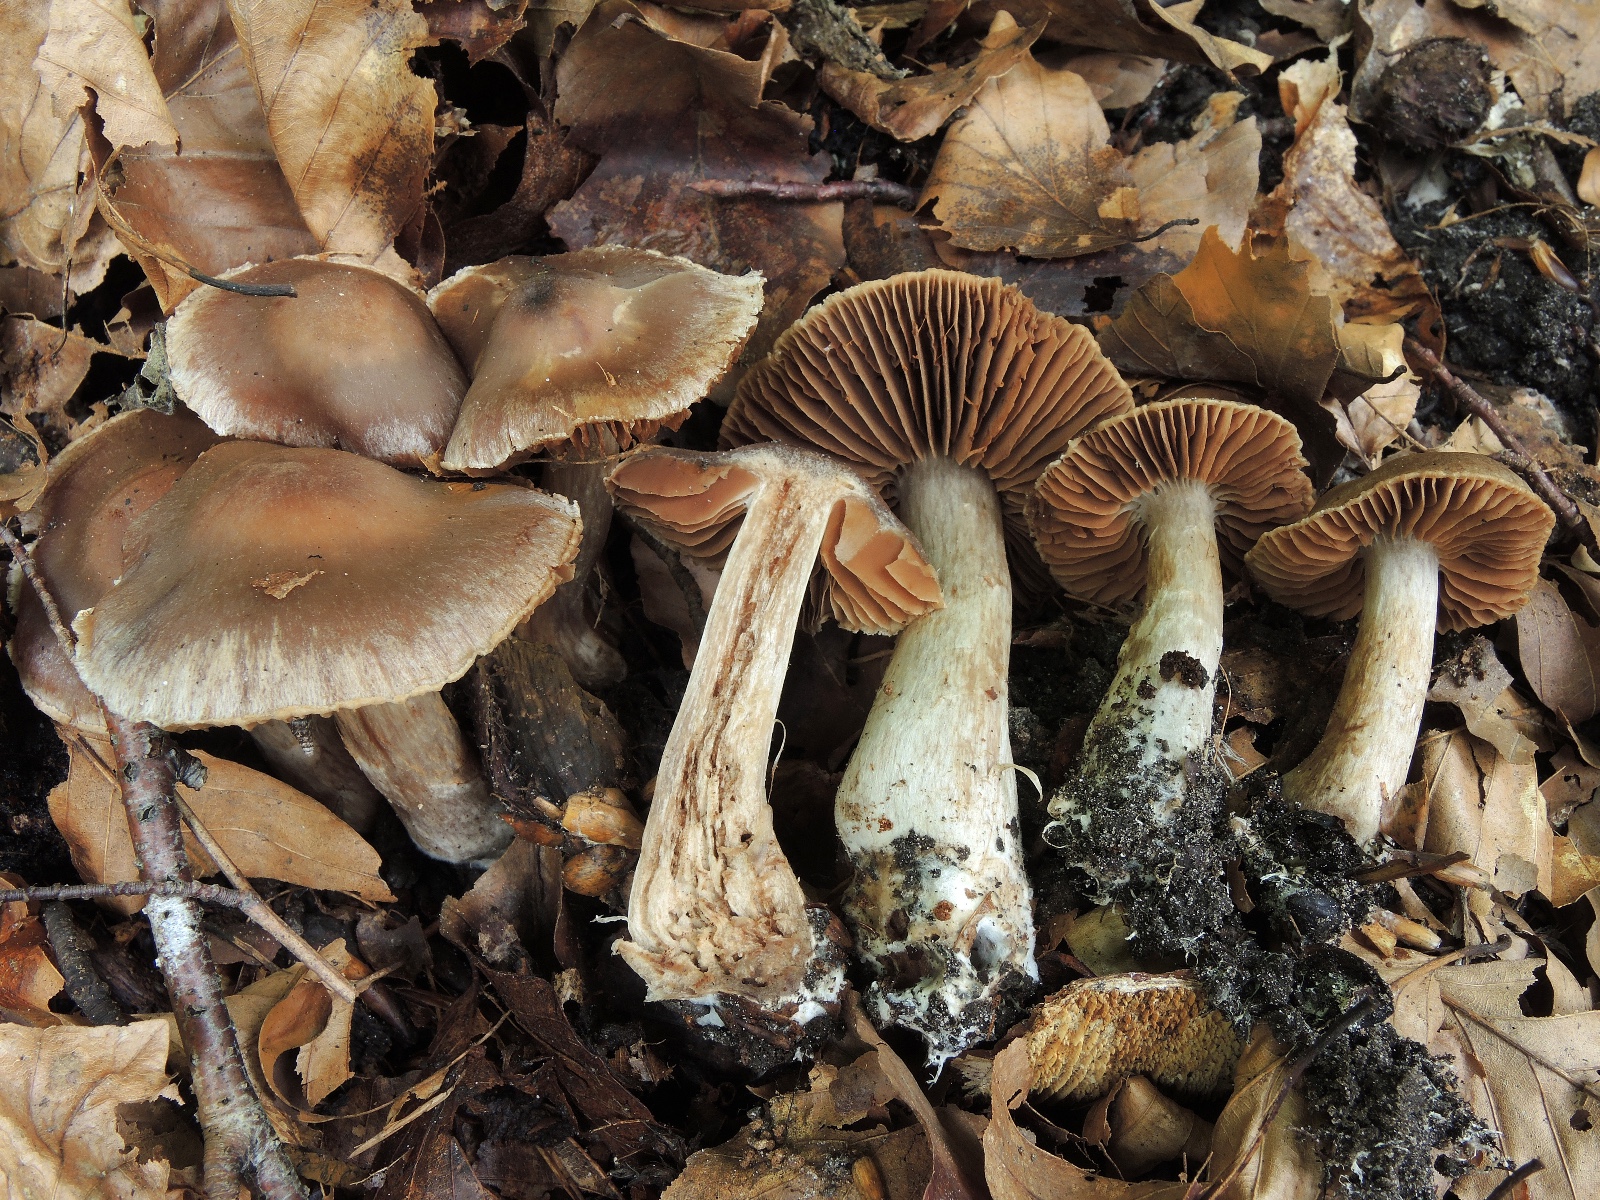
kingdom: Fungi
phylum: Basidiomycota
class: Agaricomycetes
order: Agaricales
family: Cortinariaceae
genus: Cortinarius
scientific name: Cortinarius torvoides
